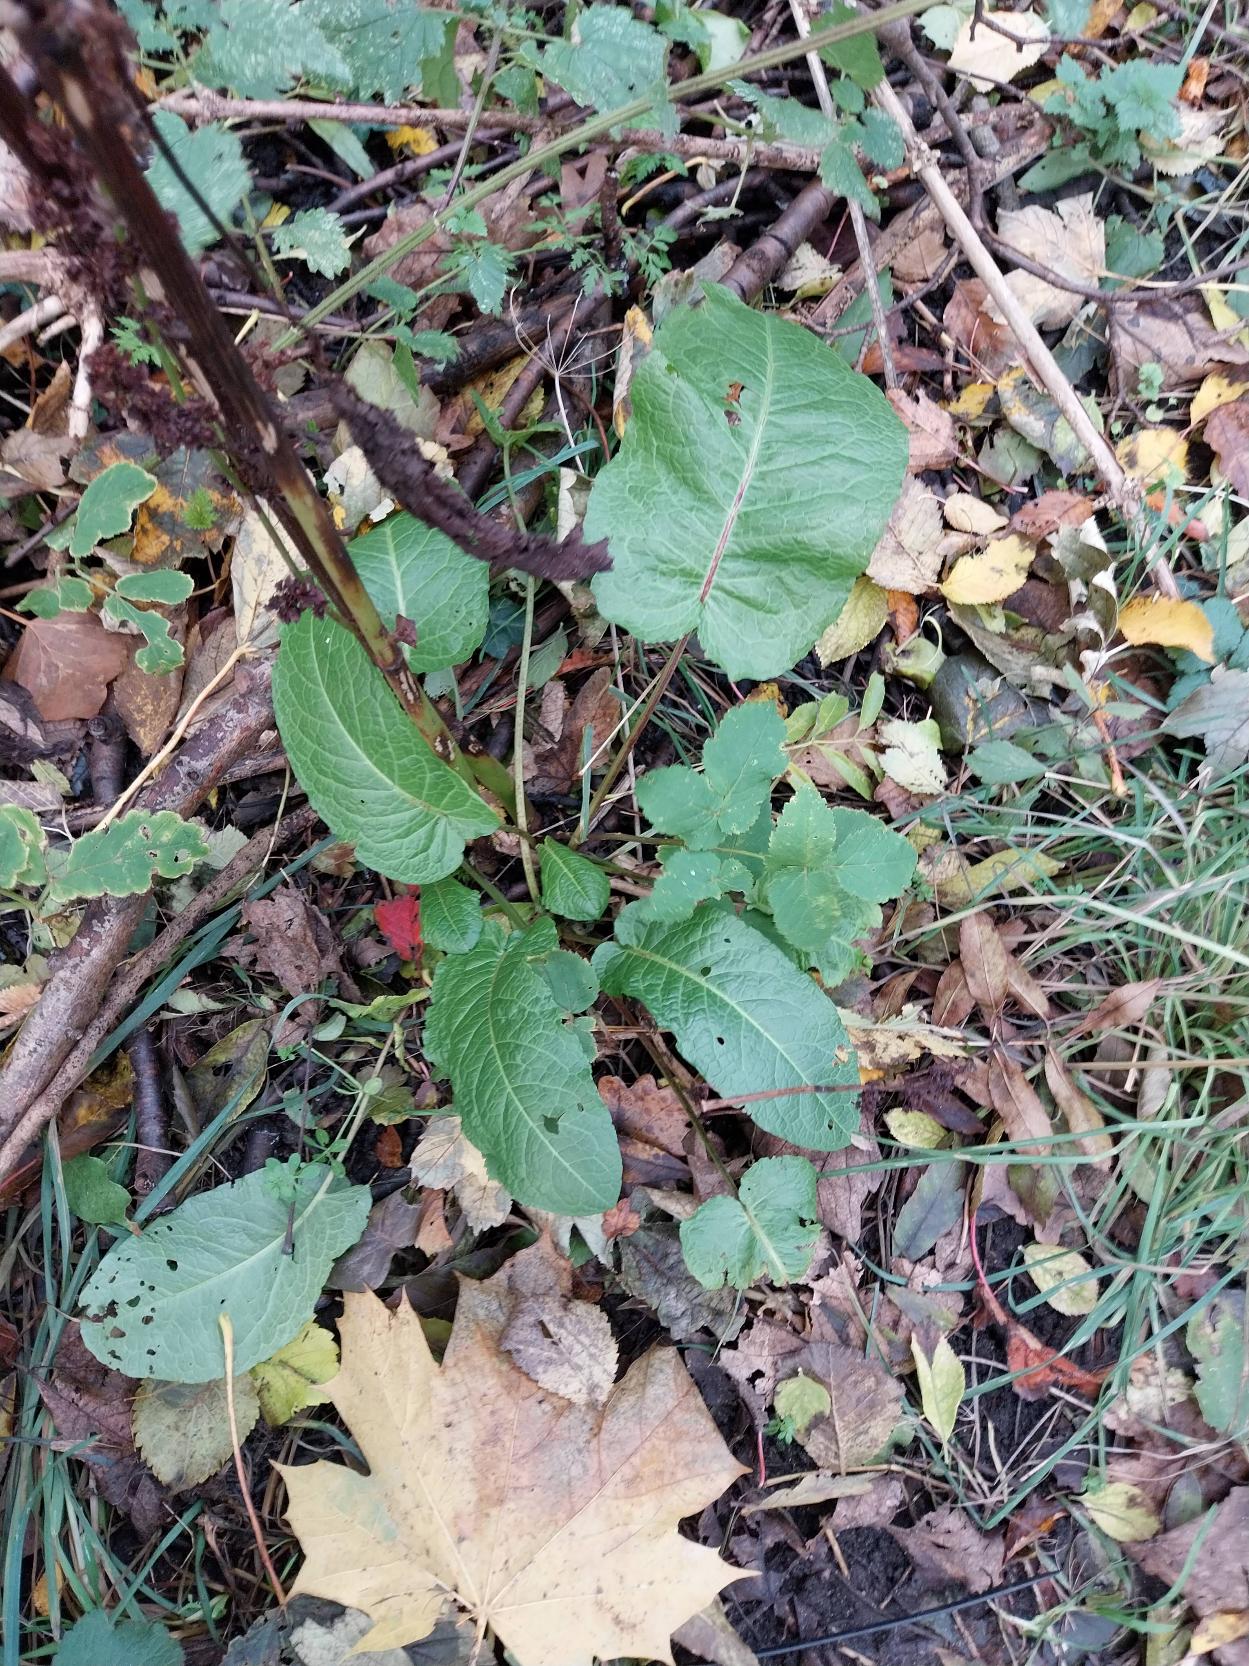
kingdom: Plantae
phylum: Tracheophyta
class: Magnoliopsida
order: Caryophyllales
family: Polygonaceae
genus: Rumex
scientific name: Rumex obtusifolius
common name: Butbladet skræppe
